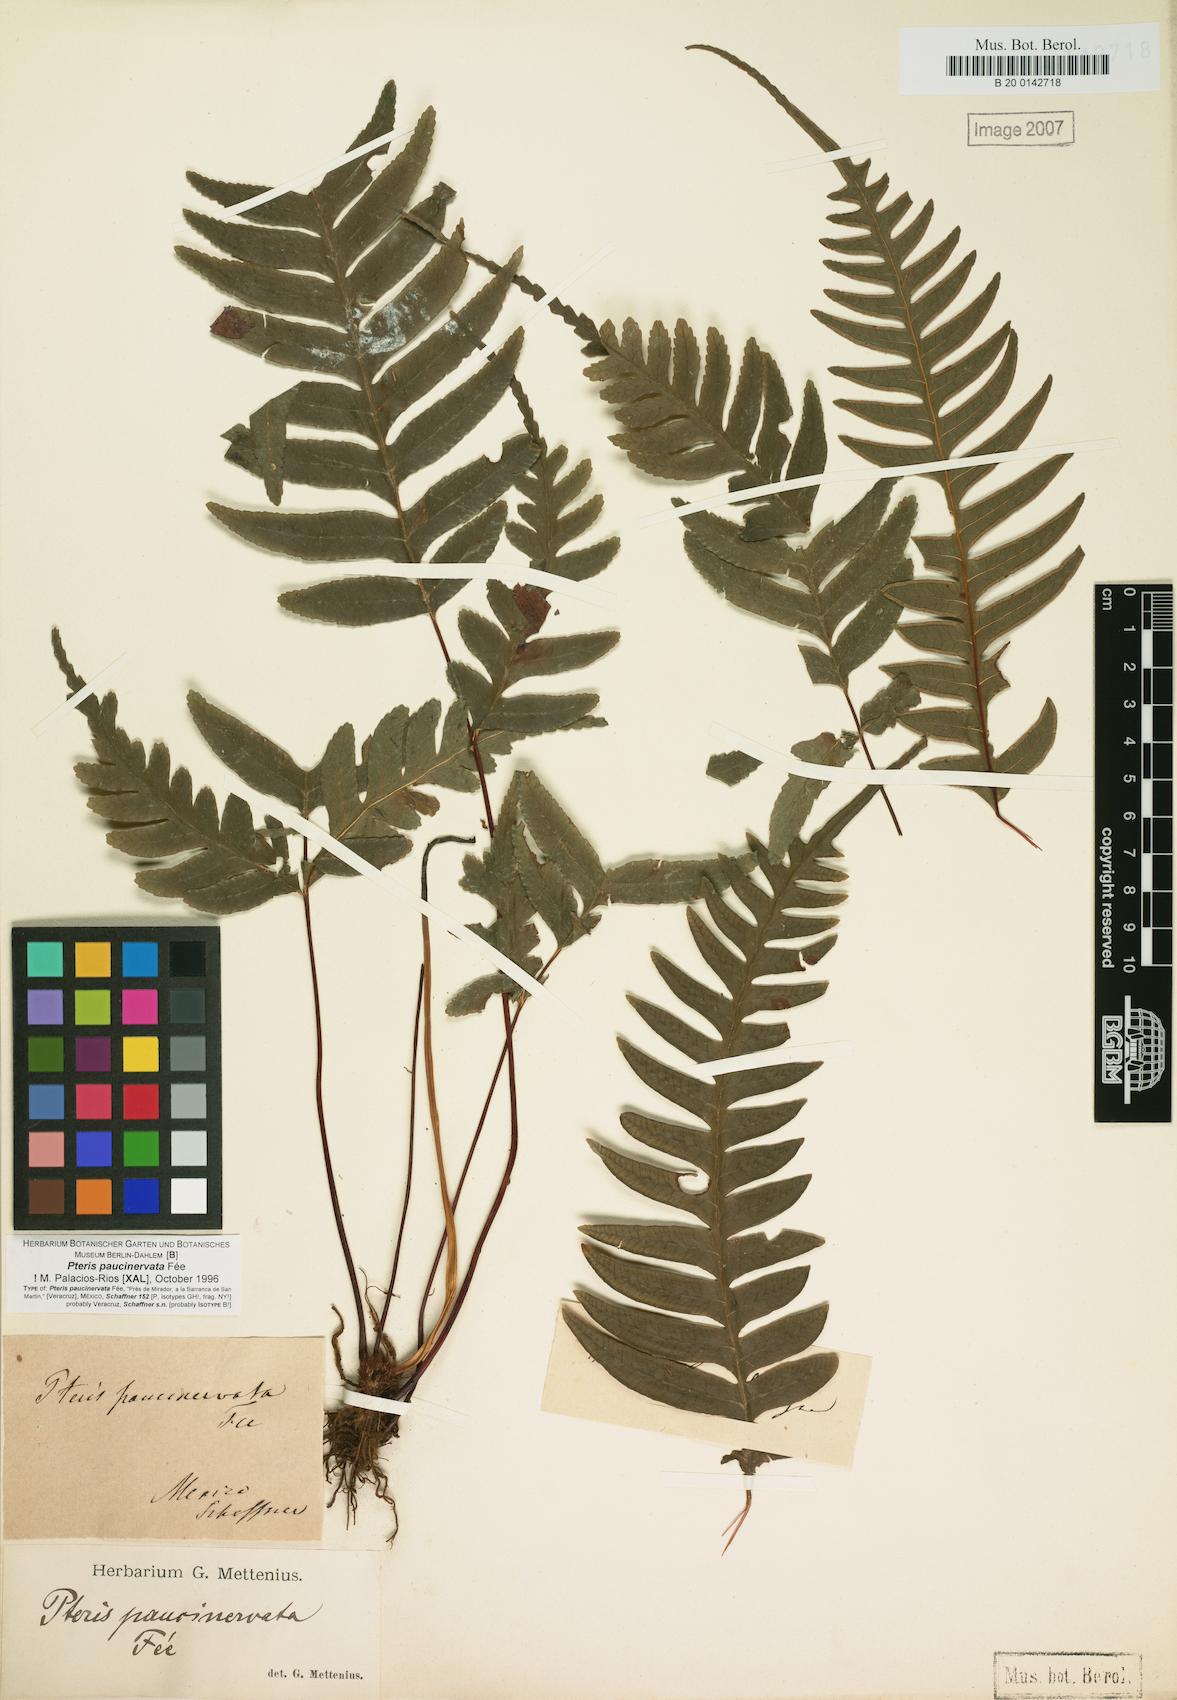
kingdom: Plantae
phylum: Tracheophyta
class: Polypodiopsida
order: Polypodiales
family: Pteridaceae
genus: Pteris
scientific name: Pteris paucinervata
